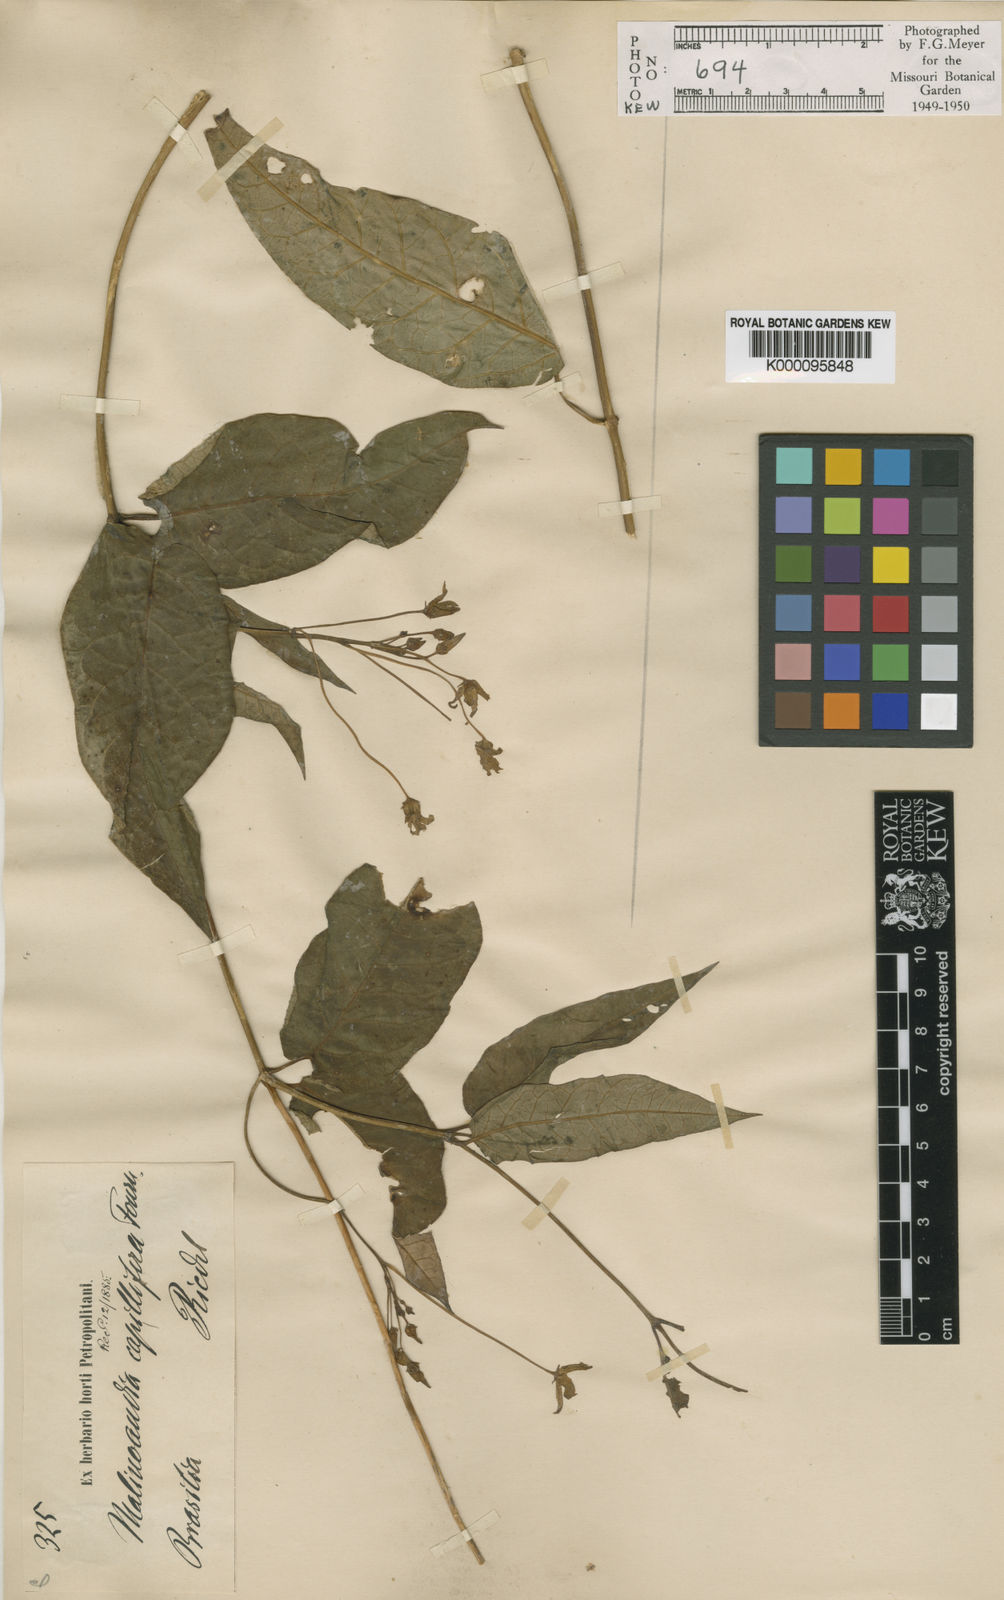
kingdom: Plantae
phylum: Tracheophyta
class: Magnoliopsida
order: Gentianales
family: Apocynaceae
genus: Matelea
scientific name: Matelea capillacea
